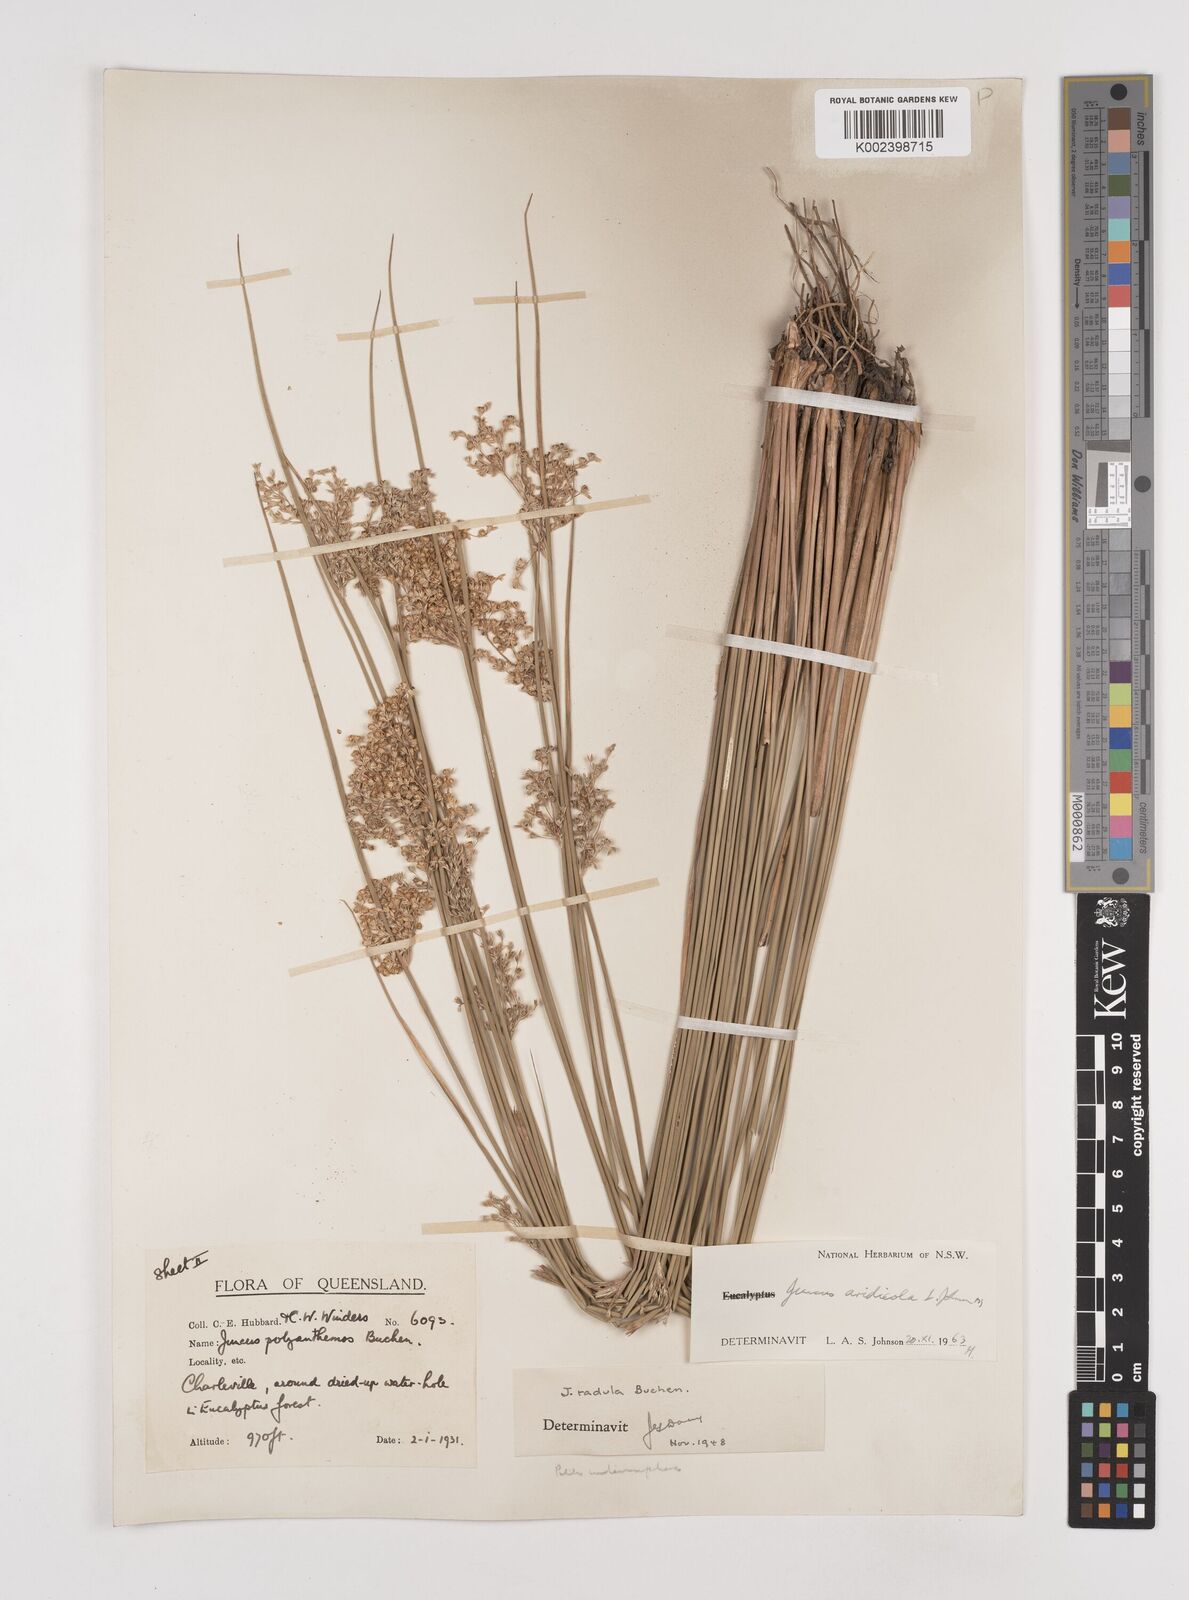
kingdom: Plantae
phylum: Tracheophyta
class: Liliopsida
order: Poales
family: Juncaceae
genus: Juncus
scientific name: Juncus aridicola
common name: Tussock rush
